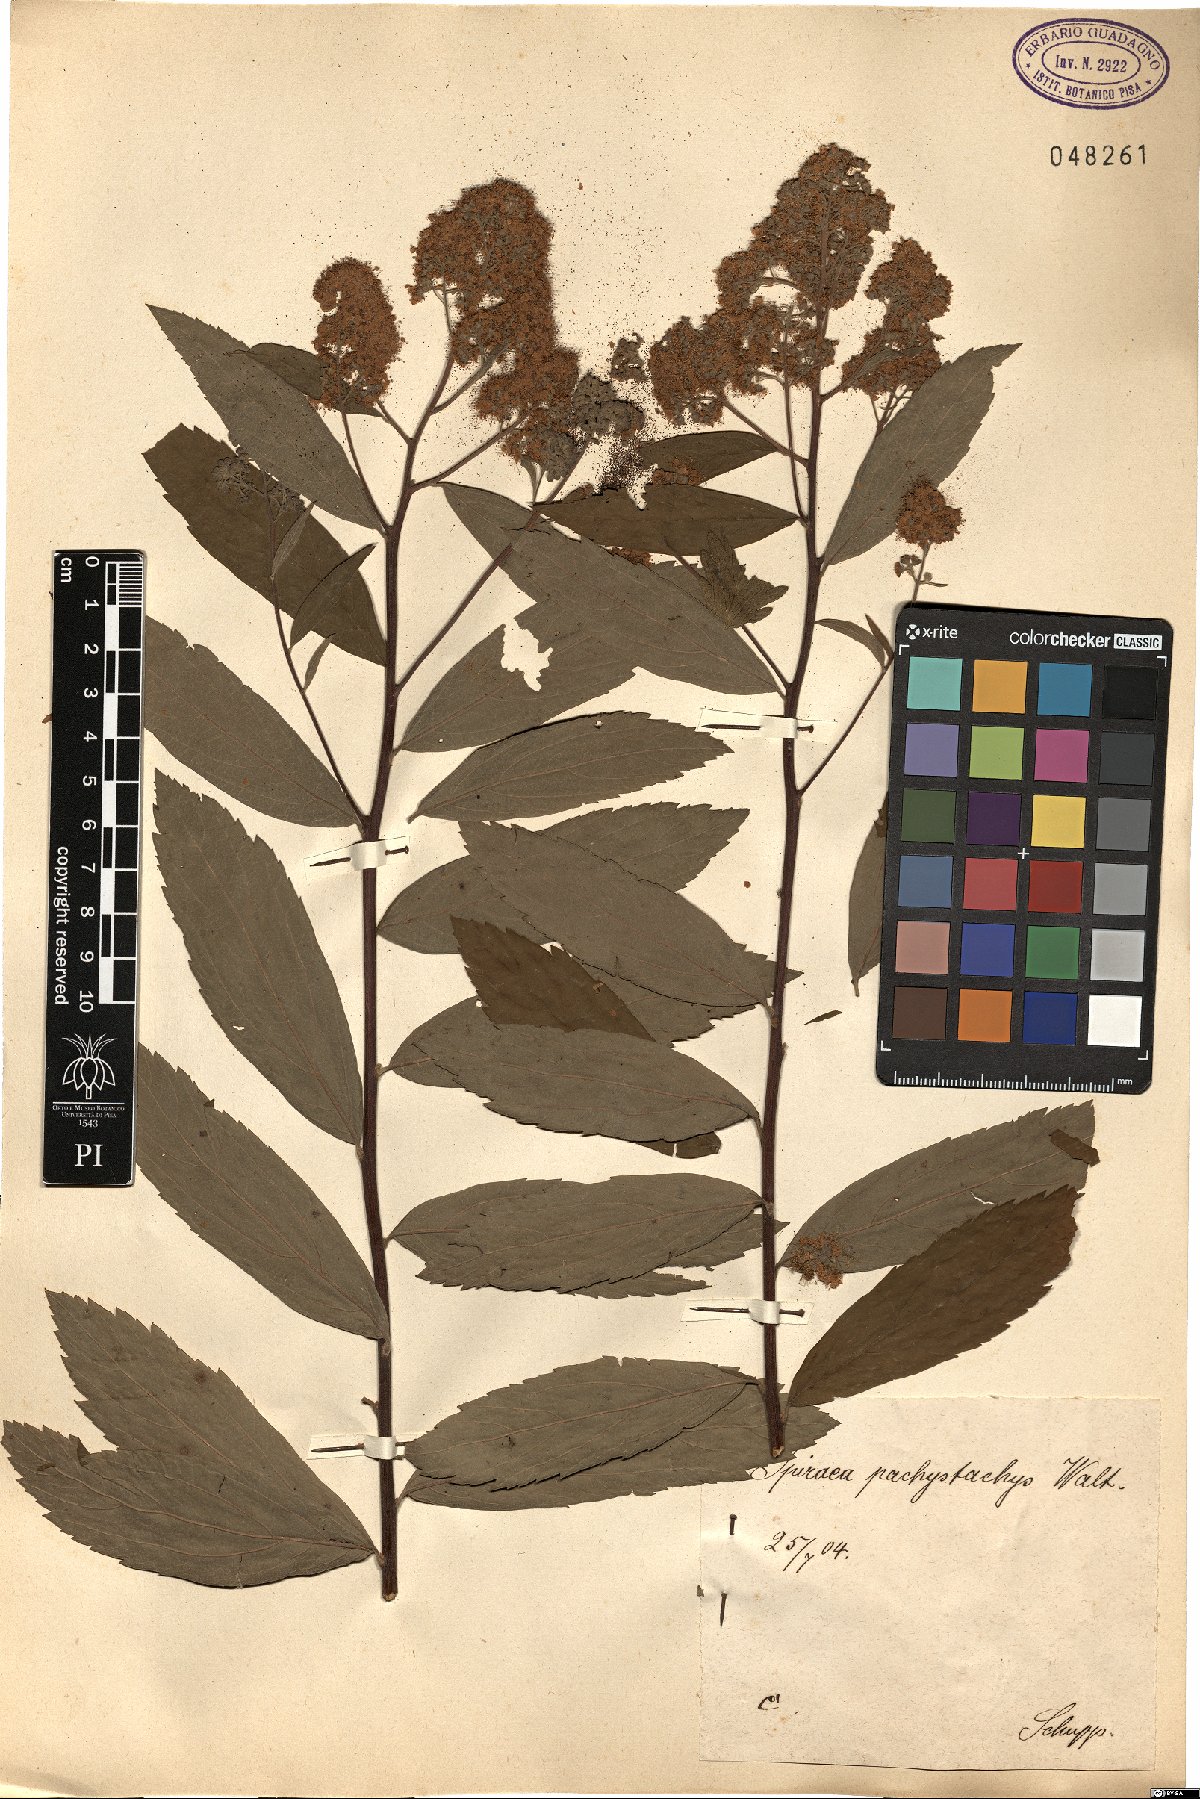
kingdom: Plantae
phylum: Tracheophyta
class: Magnoliopsida
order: Rosales
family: Rosaceae
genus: Spiraea
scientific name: Spiraea pachystachys
